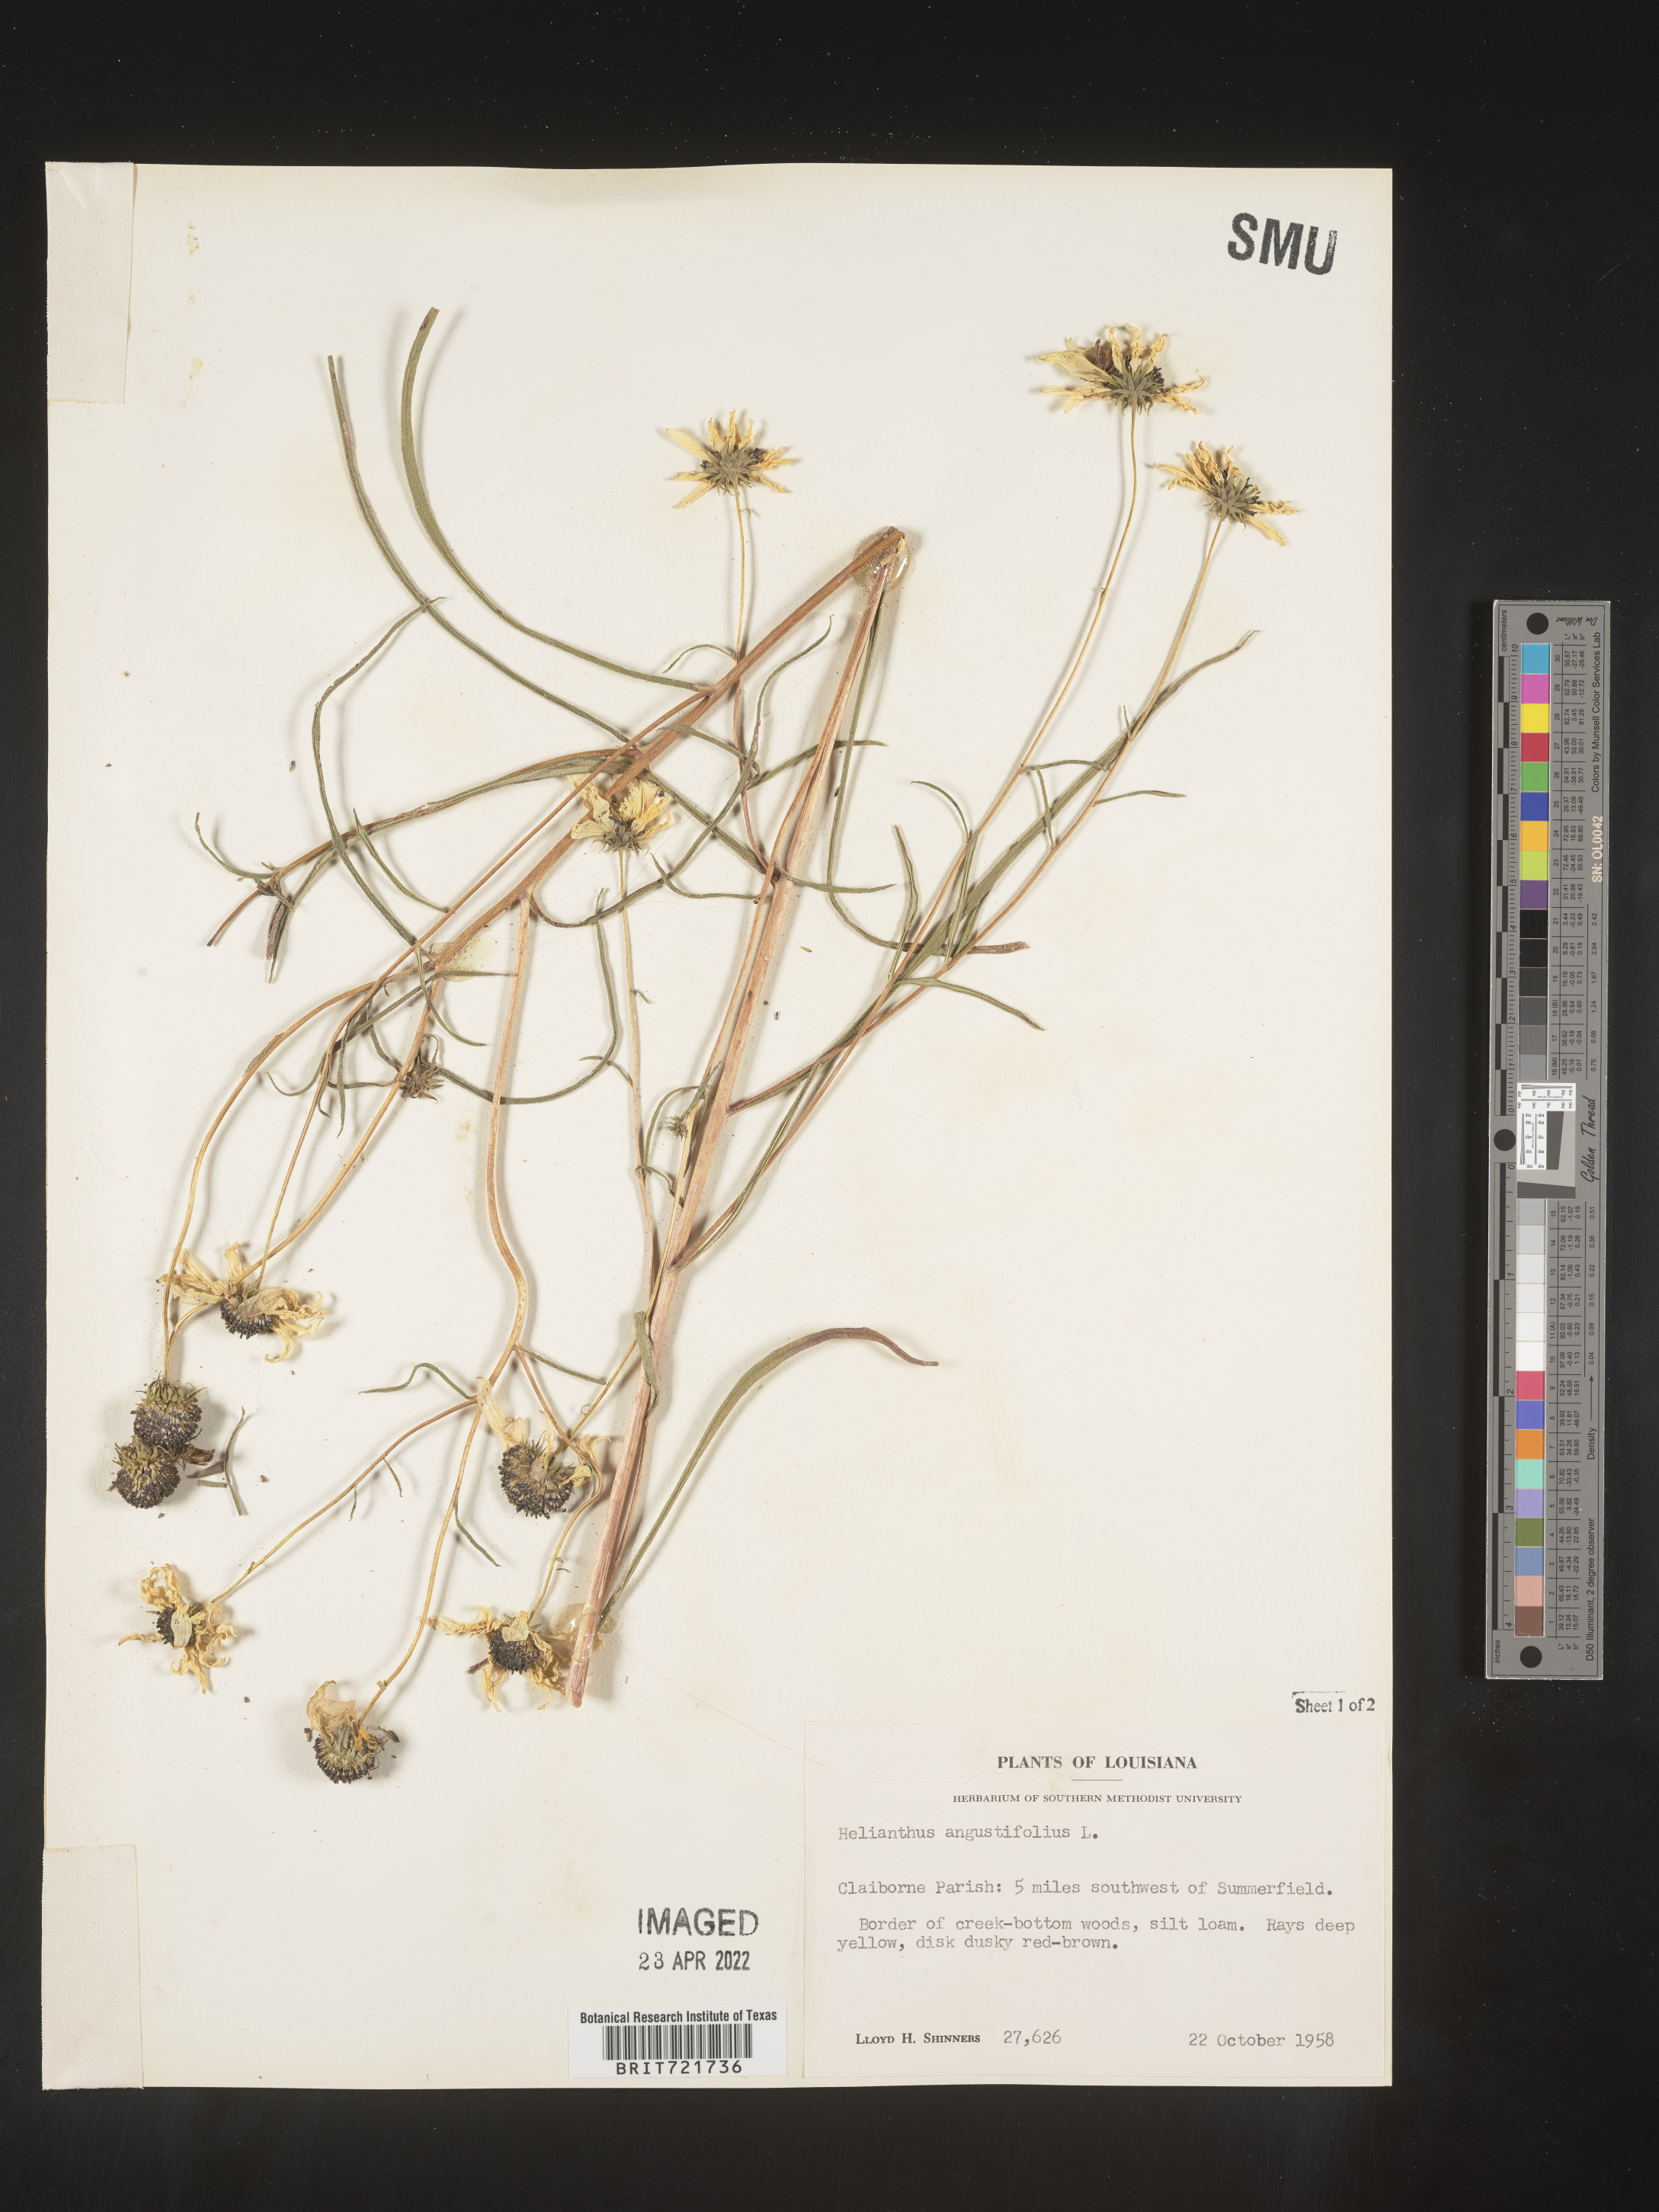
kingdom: Plantae
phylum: Tracheophyta
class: Magnoliopsida
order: Asterales
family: Asteraceae
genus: Helianthus
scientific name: Helianthus angustifolius
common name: Swamp sunflower
